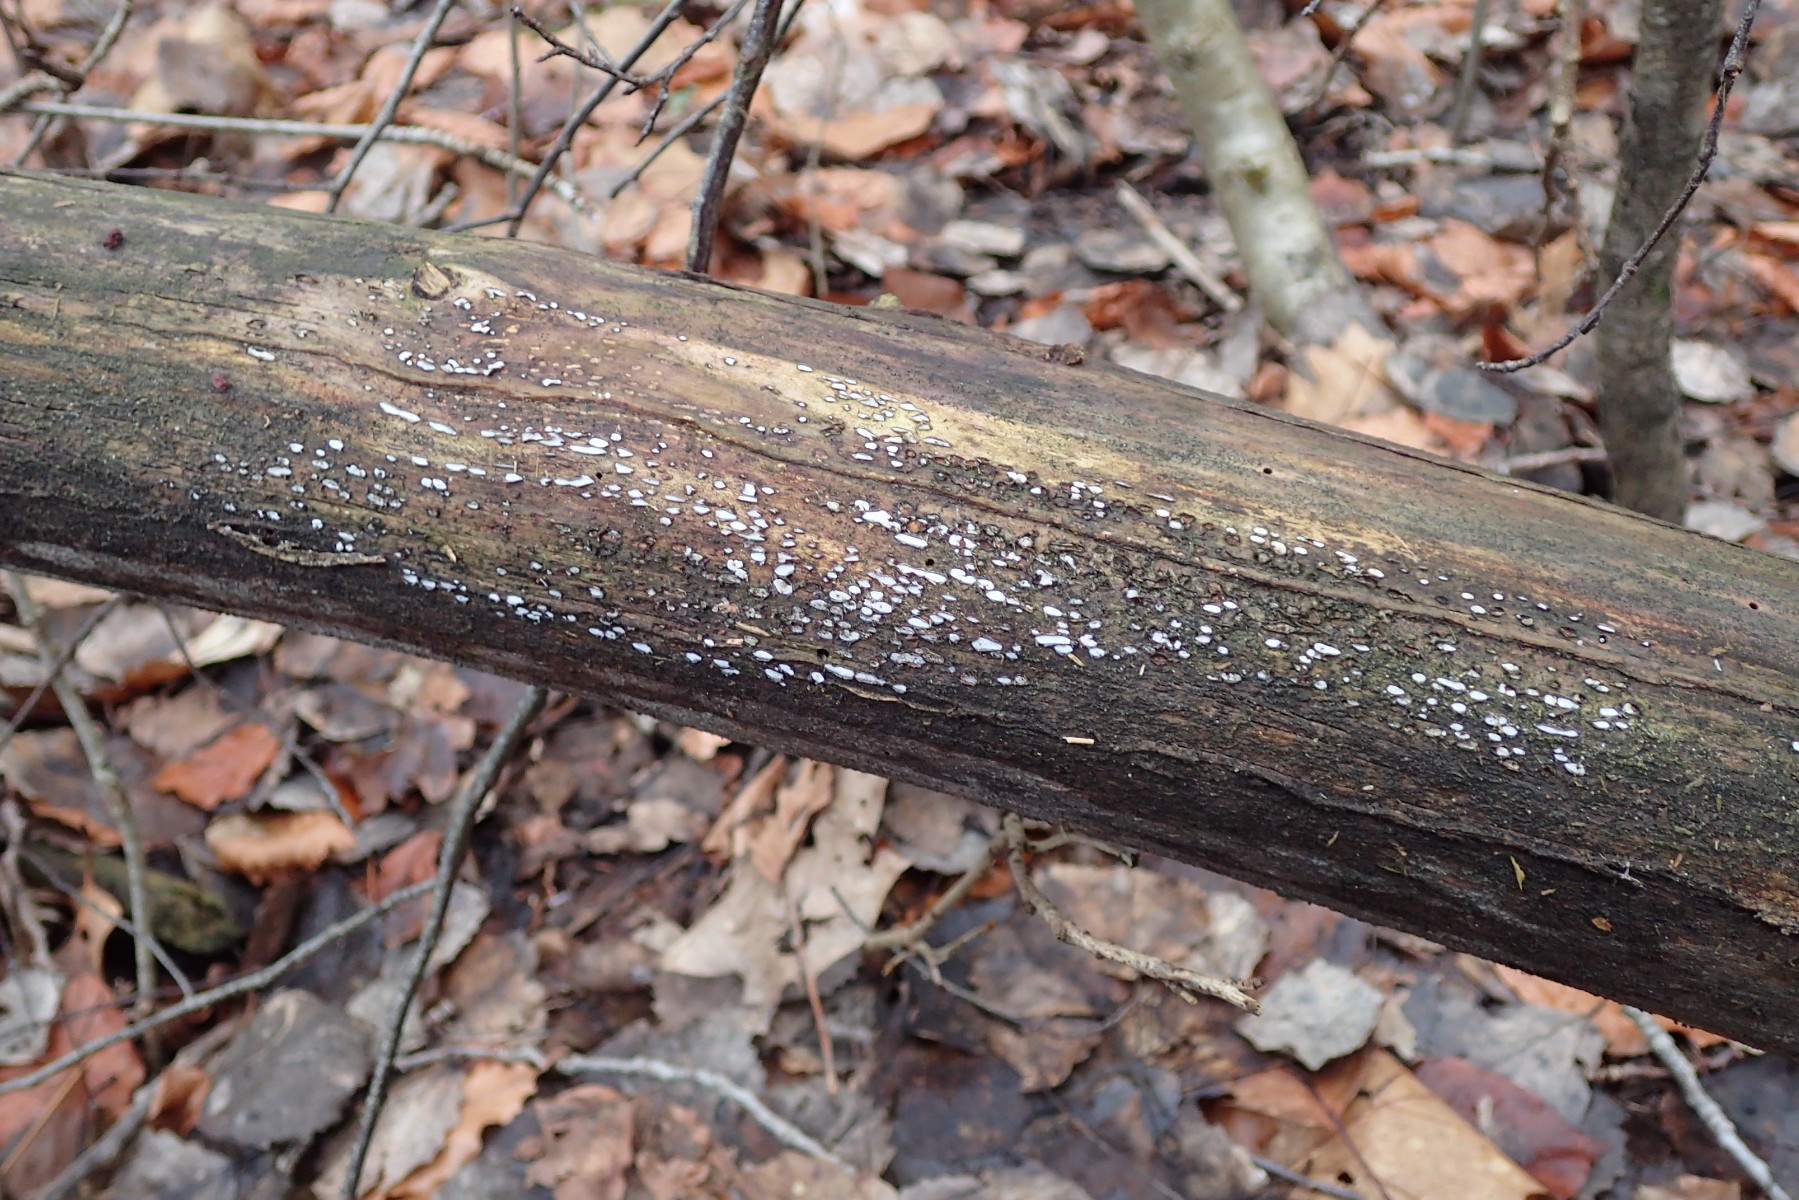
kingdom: Fungi
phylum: Ascomycota
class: Leotiomycetes
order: Chaetomellales
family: Marthamycetaceae
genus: Propolis
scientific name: Propolis farinosa
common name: almindelig vedsprængerskive
